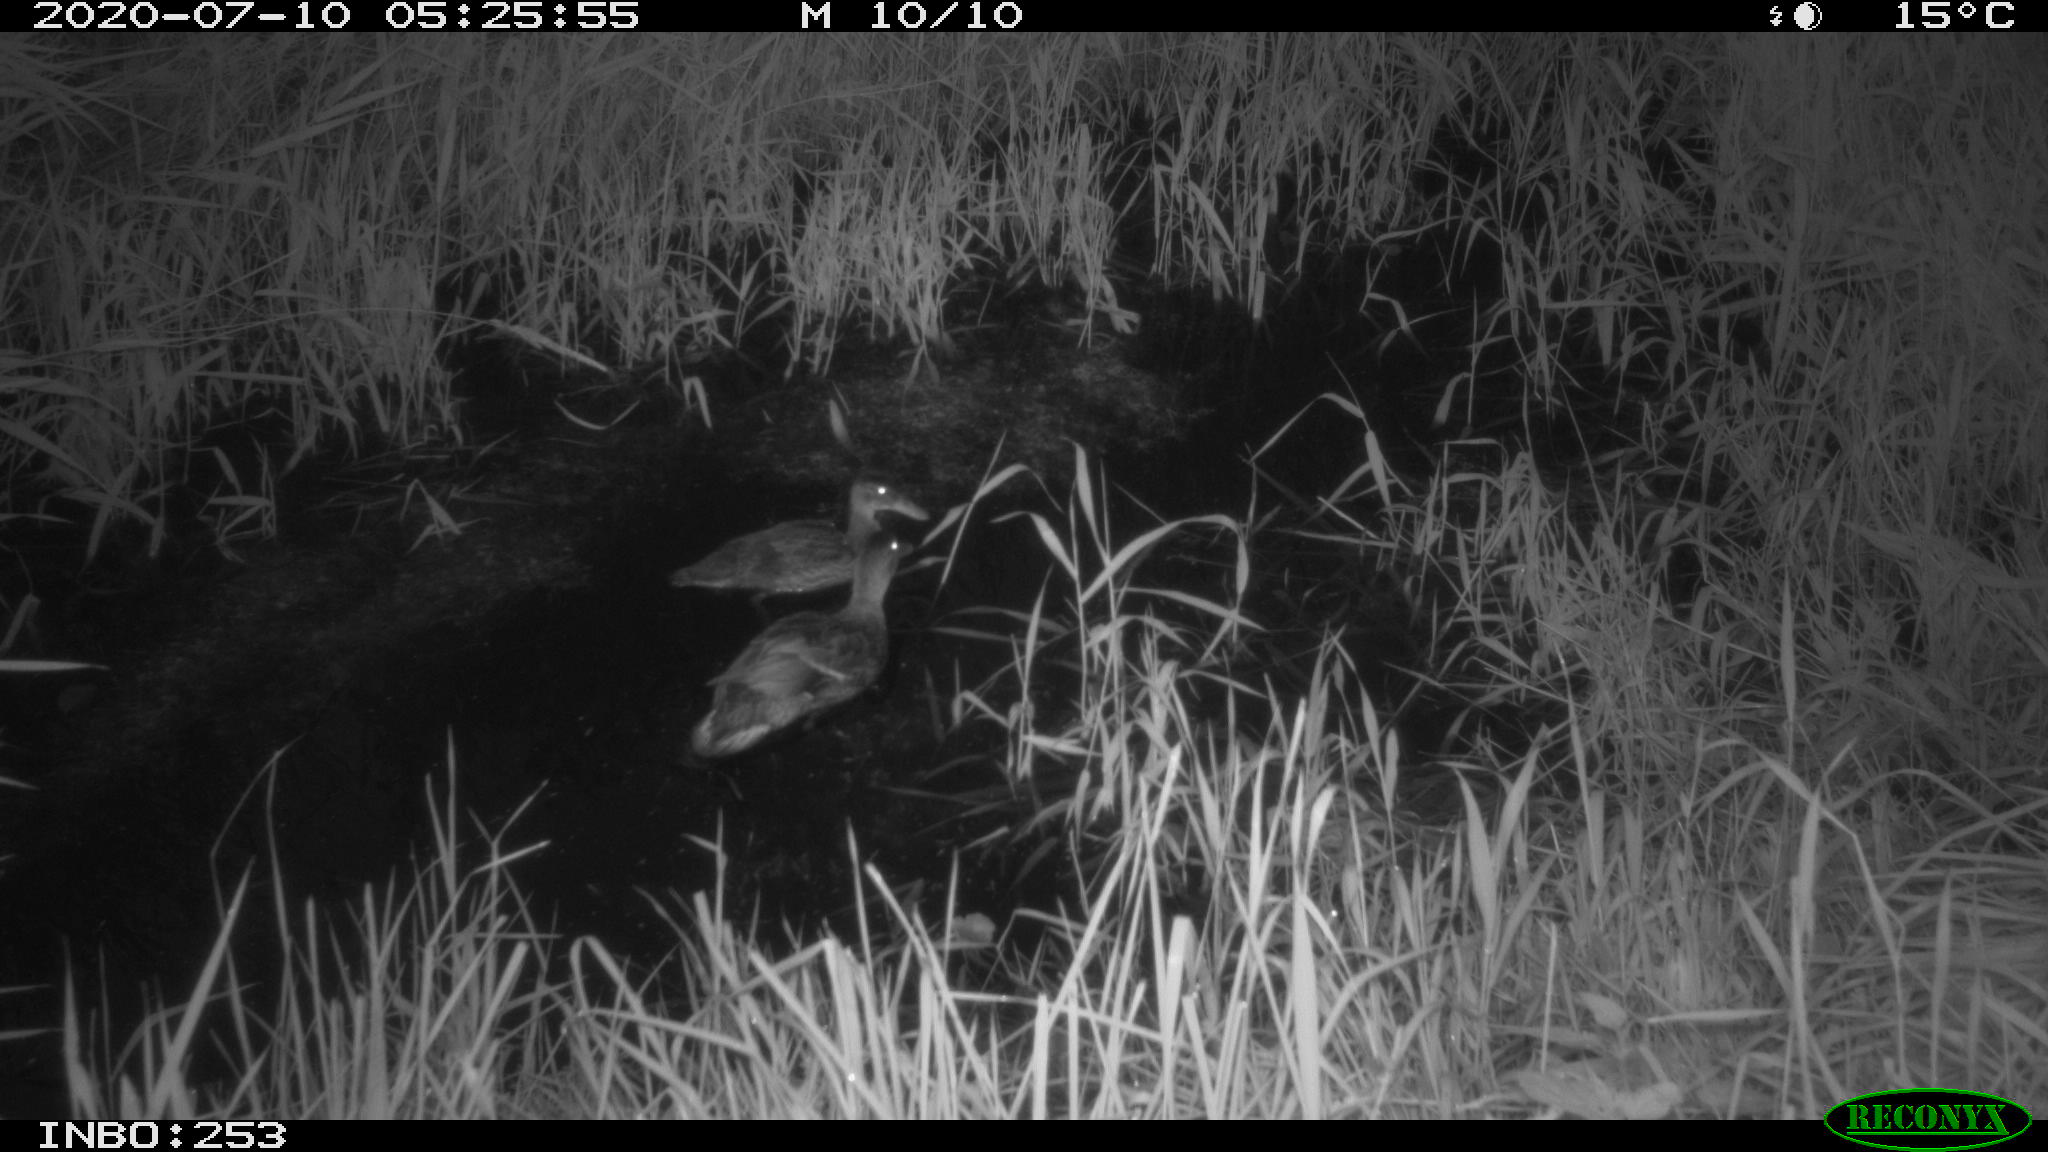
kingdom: Animalia
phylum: Chordata
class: Aves
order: Anseriformes
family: Anatidae
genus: Anas
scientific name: Anas platyrhynchos
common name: Mallard
